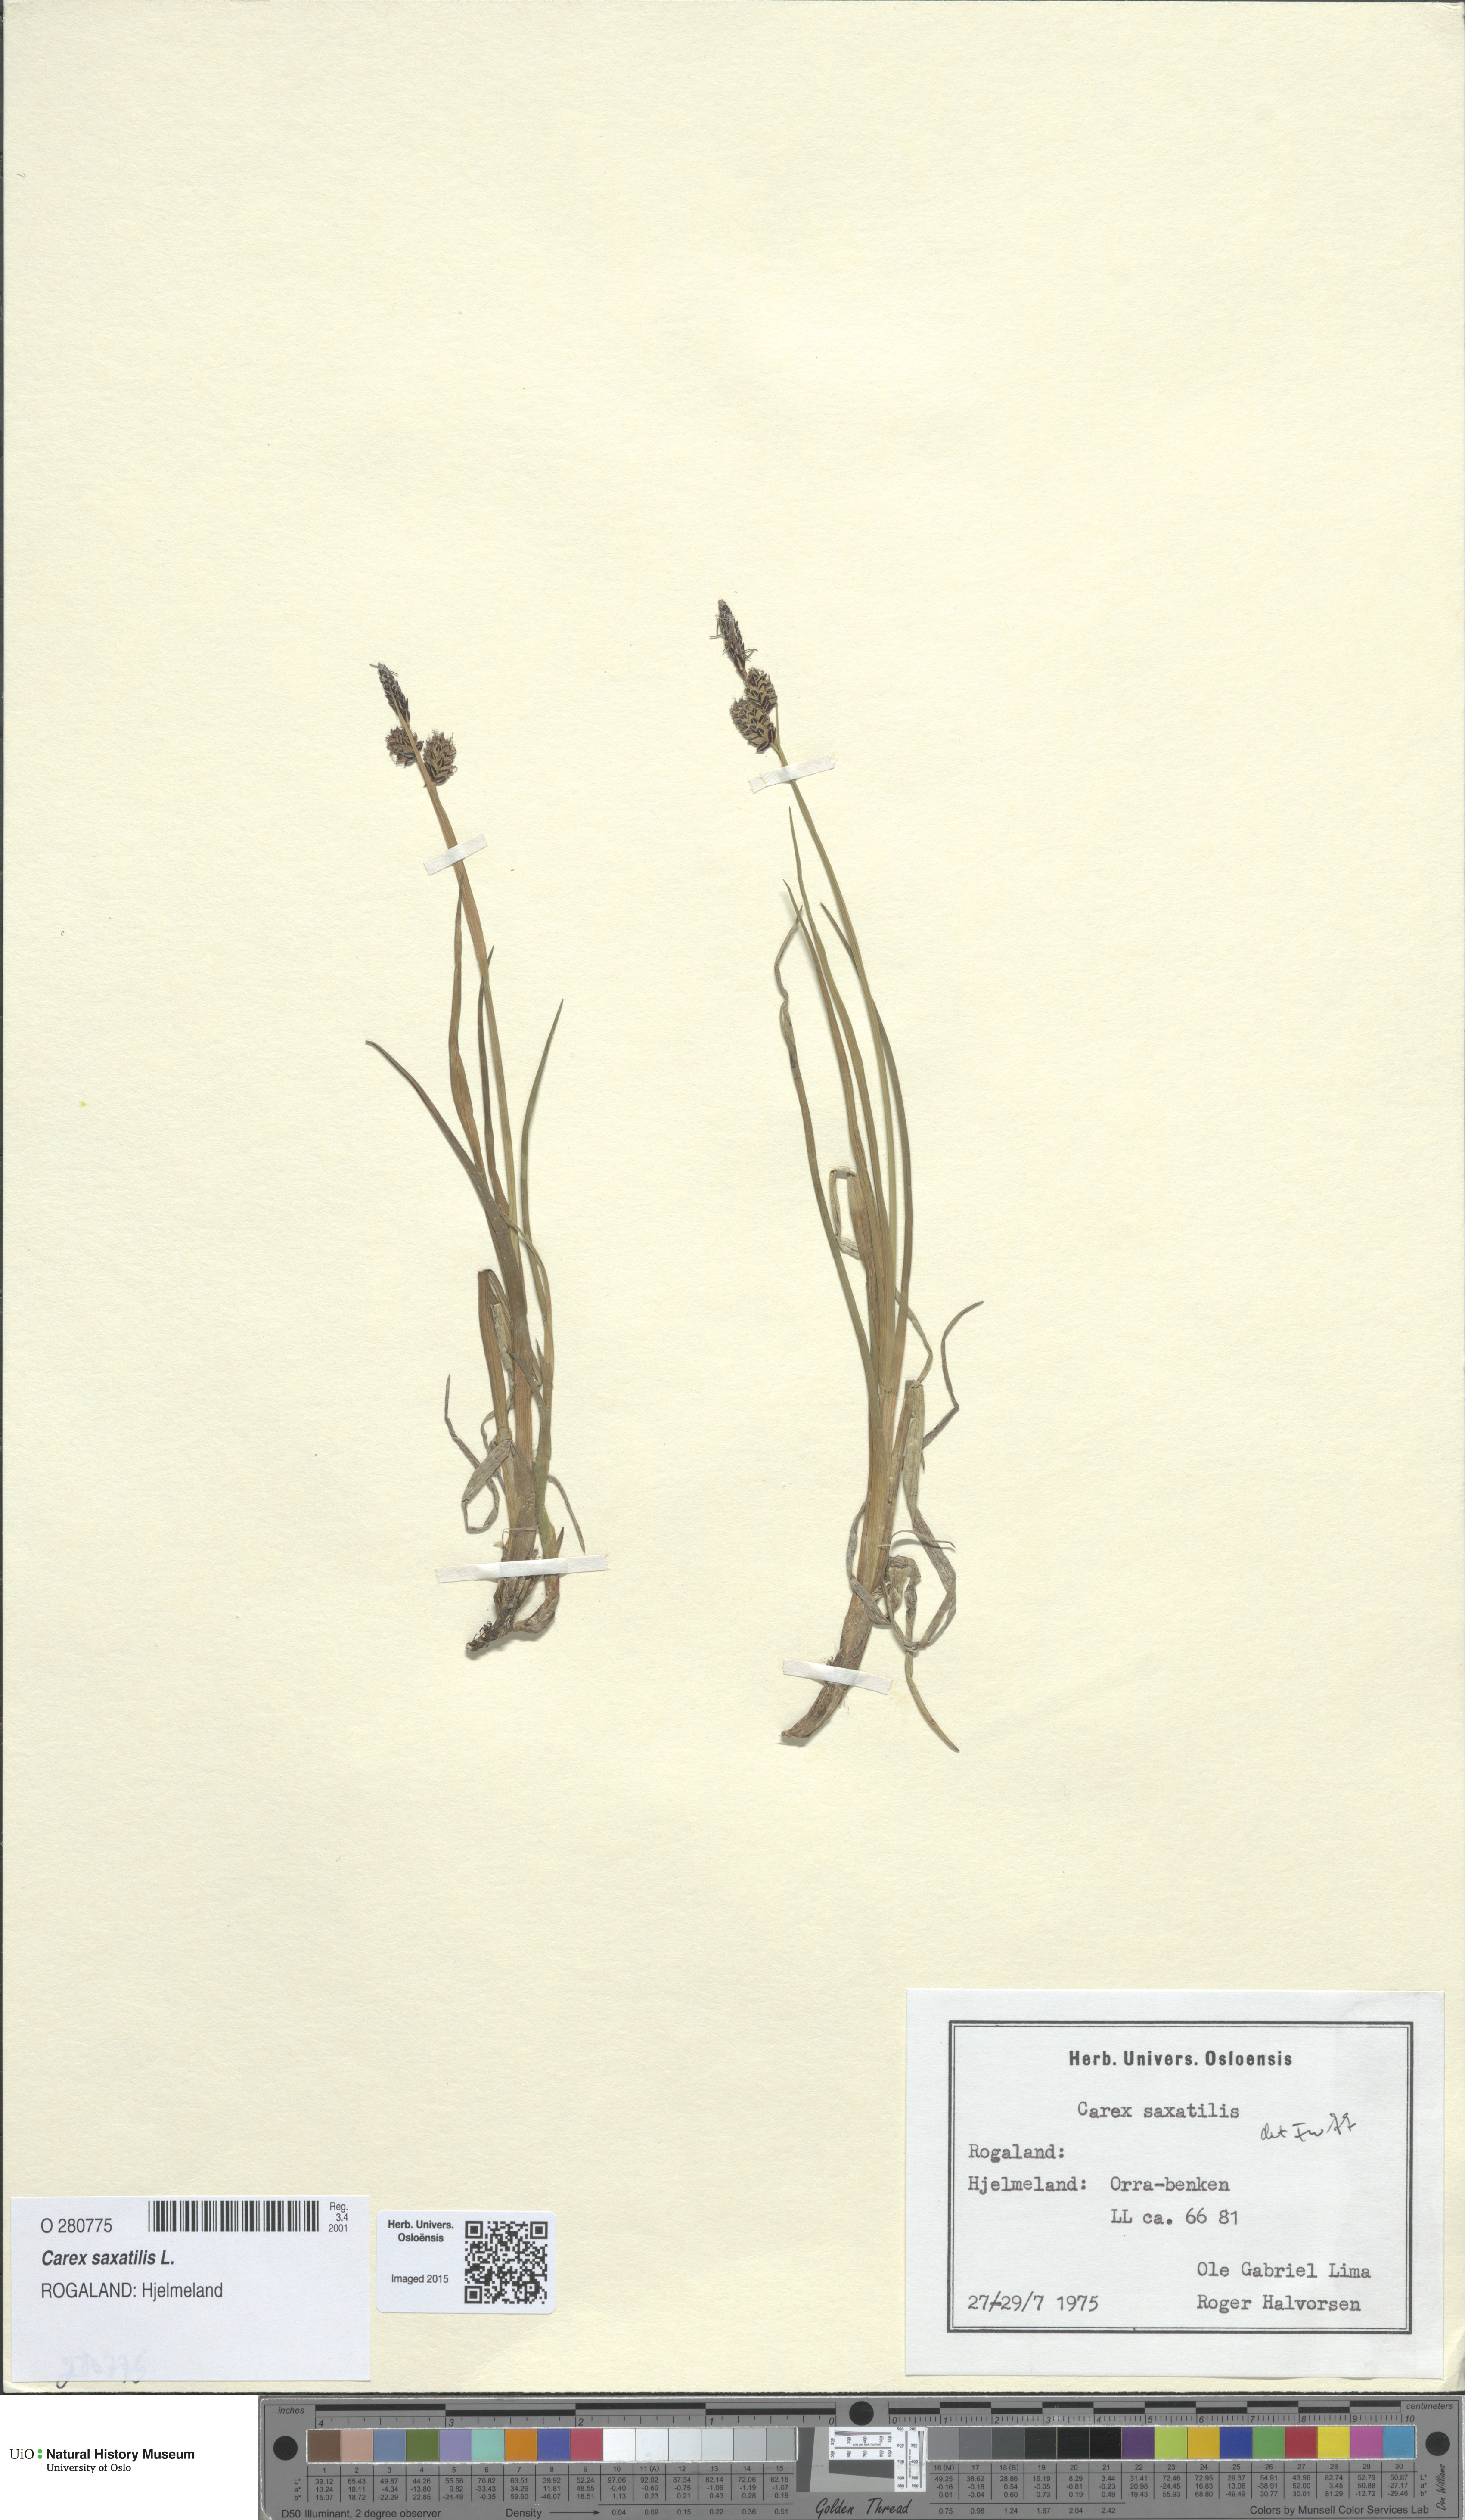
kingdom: Plantae
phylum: Tracheophyta
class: Liliopsida
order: Poales
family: Cyperaceae
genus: Carex
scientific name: Carex saxatilis
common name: Russet sedge
